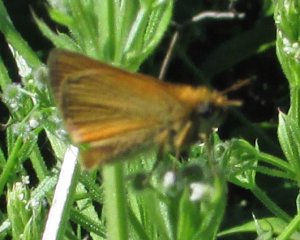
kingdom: Animalia
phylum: Arthropoda
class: Insecta
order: Lepidoptera
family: Hesperiidae
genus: Thymelicus
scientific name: Thymelicus lineola
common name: European Skipper
